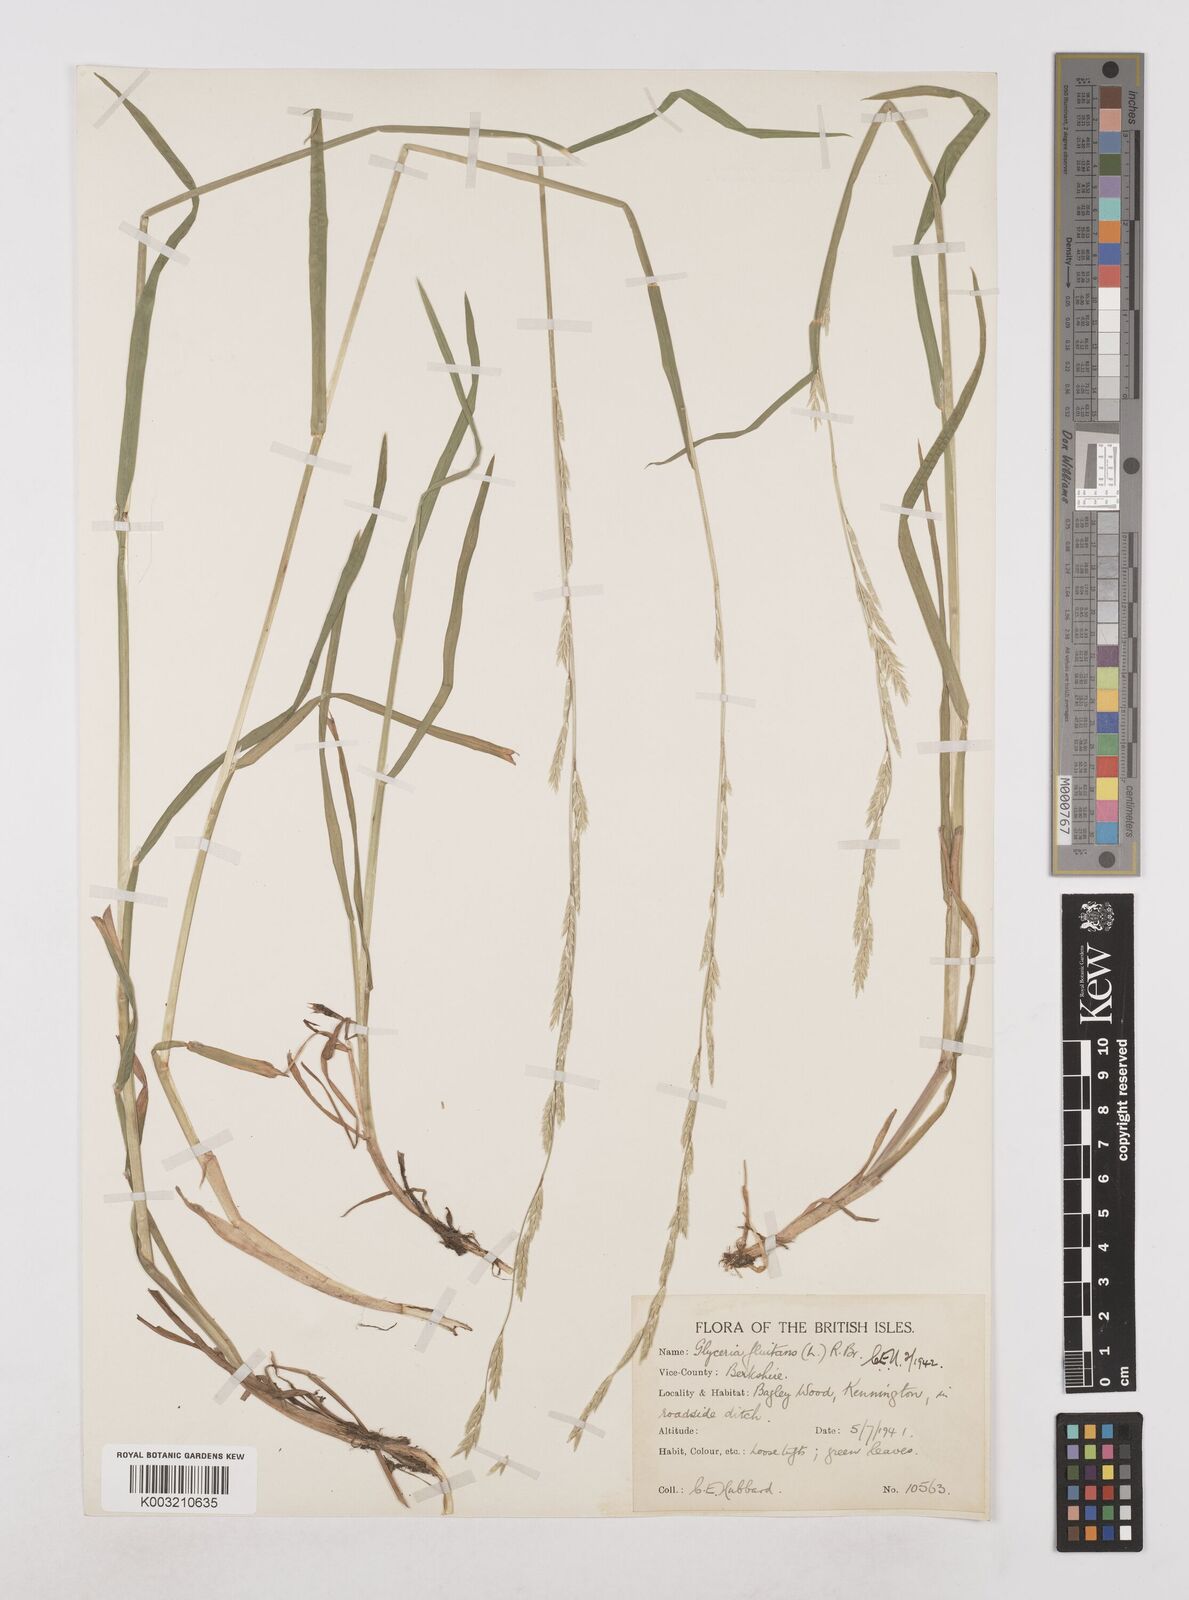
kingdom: Plantae
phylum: Tracheophyta
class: Liliopsida
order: Poales
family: Poaceae
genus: Glyceria
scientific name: Glyceria fluitans
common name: Floating sweet-grass
